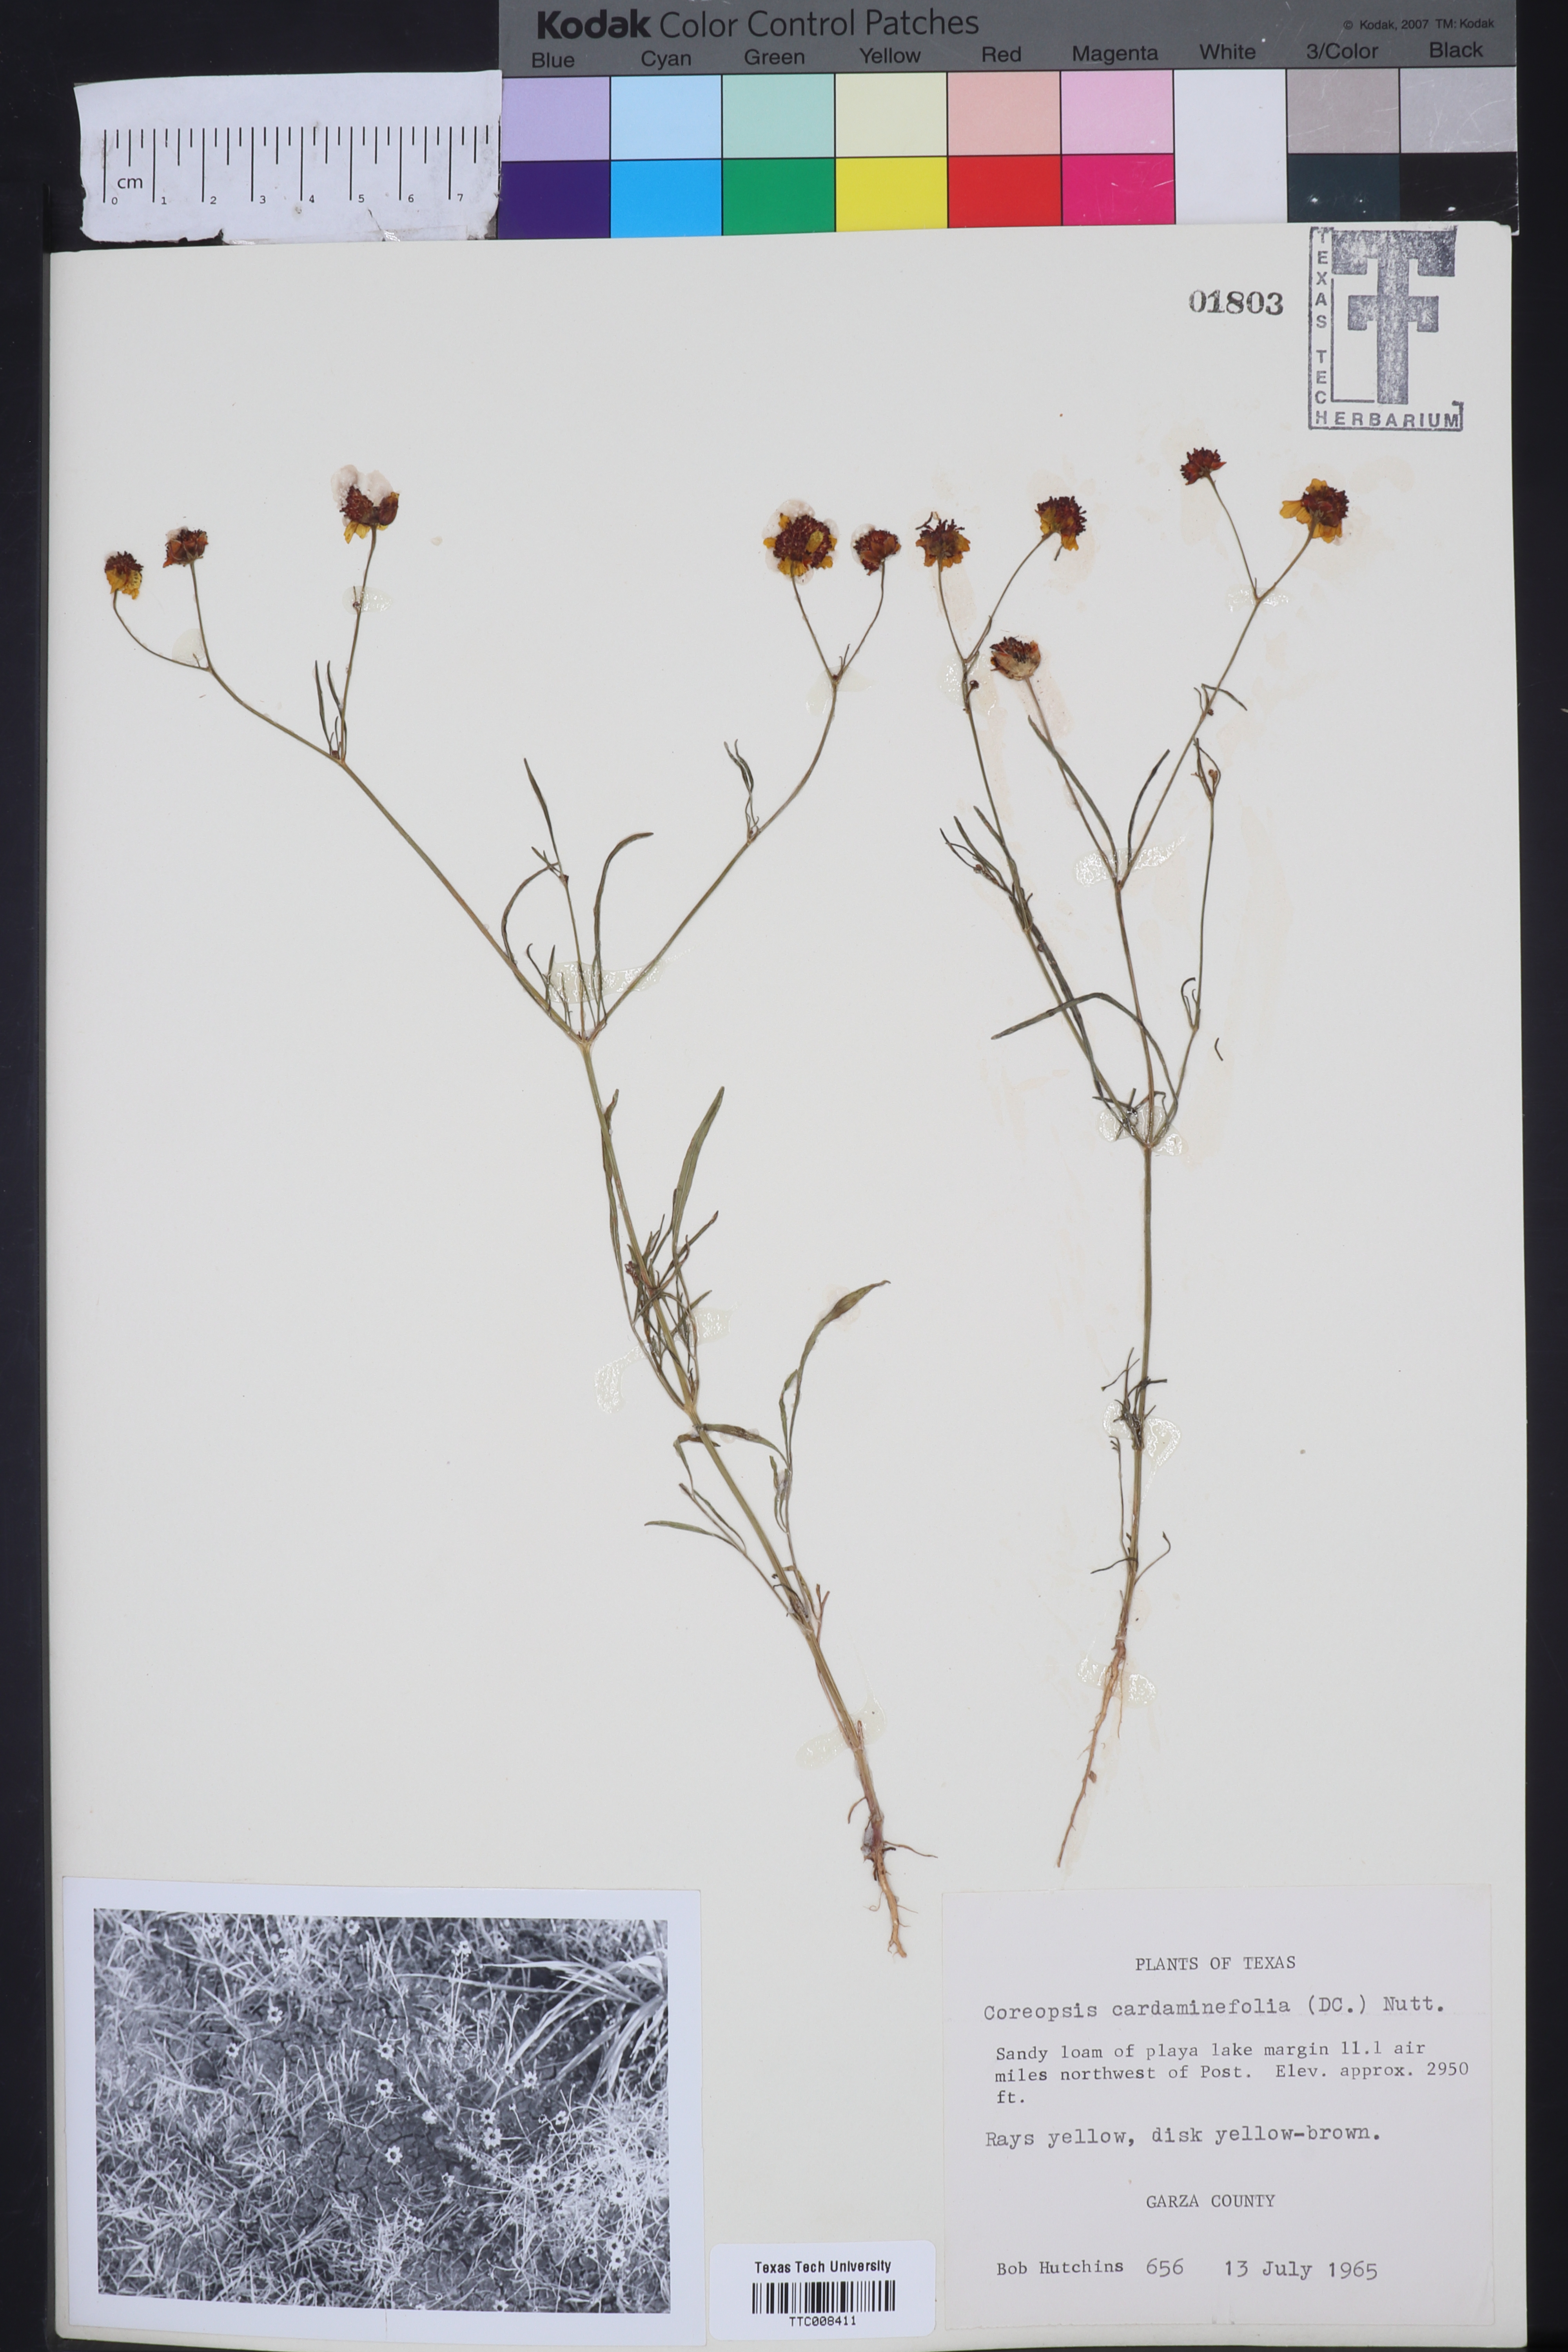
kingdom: Plantae
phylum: Tracheophyta
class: Magnoliopsida
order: Asterales
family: Asteraceae
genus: Coreopsis
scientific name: Coreopsis tinctoria
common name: Garden tickseed
